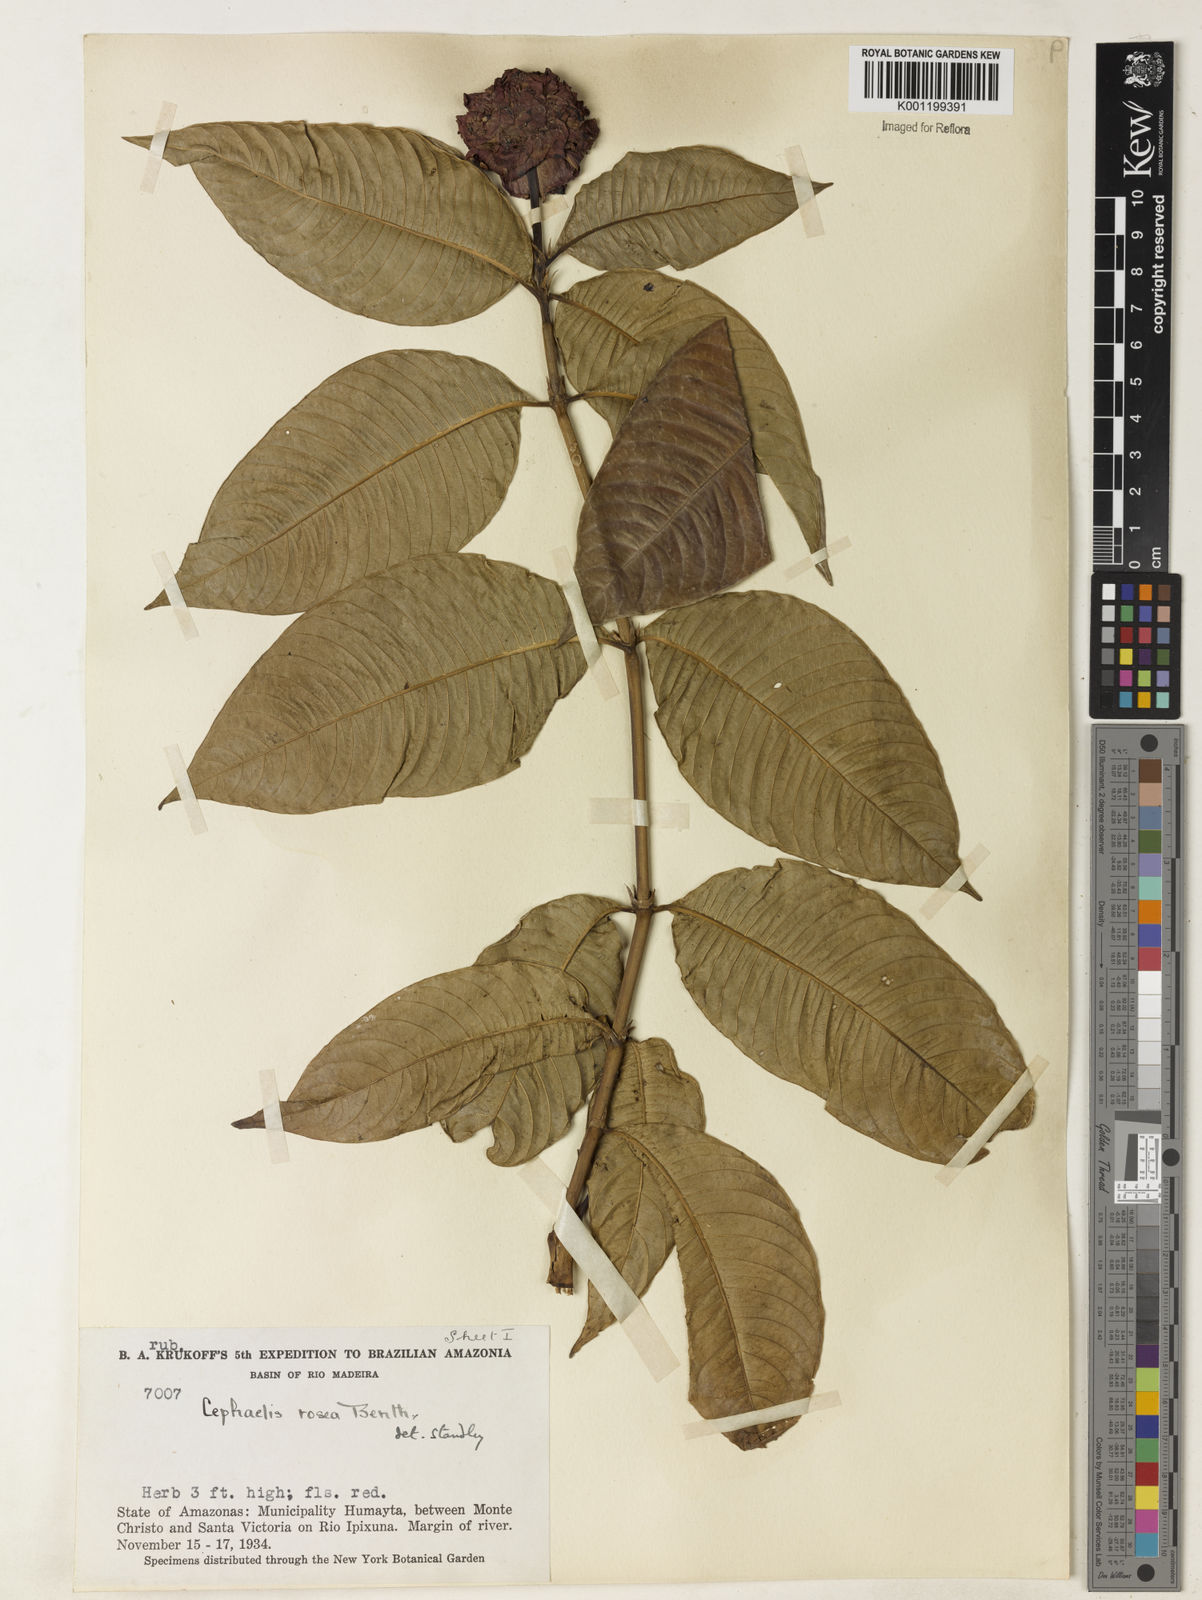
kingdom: Plantae
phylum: Tracheophyta
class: Magnoliopsida
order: Gentianales
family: Rubiaceae
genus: Psychotria
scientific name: Psychotria
